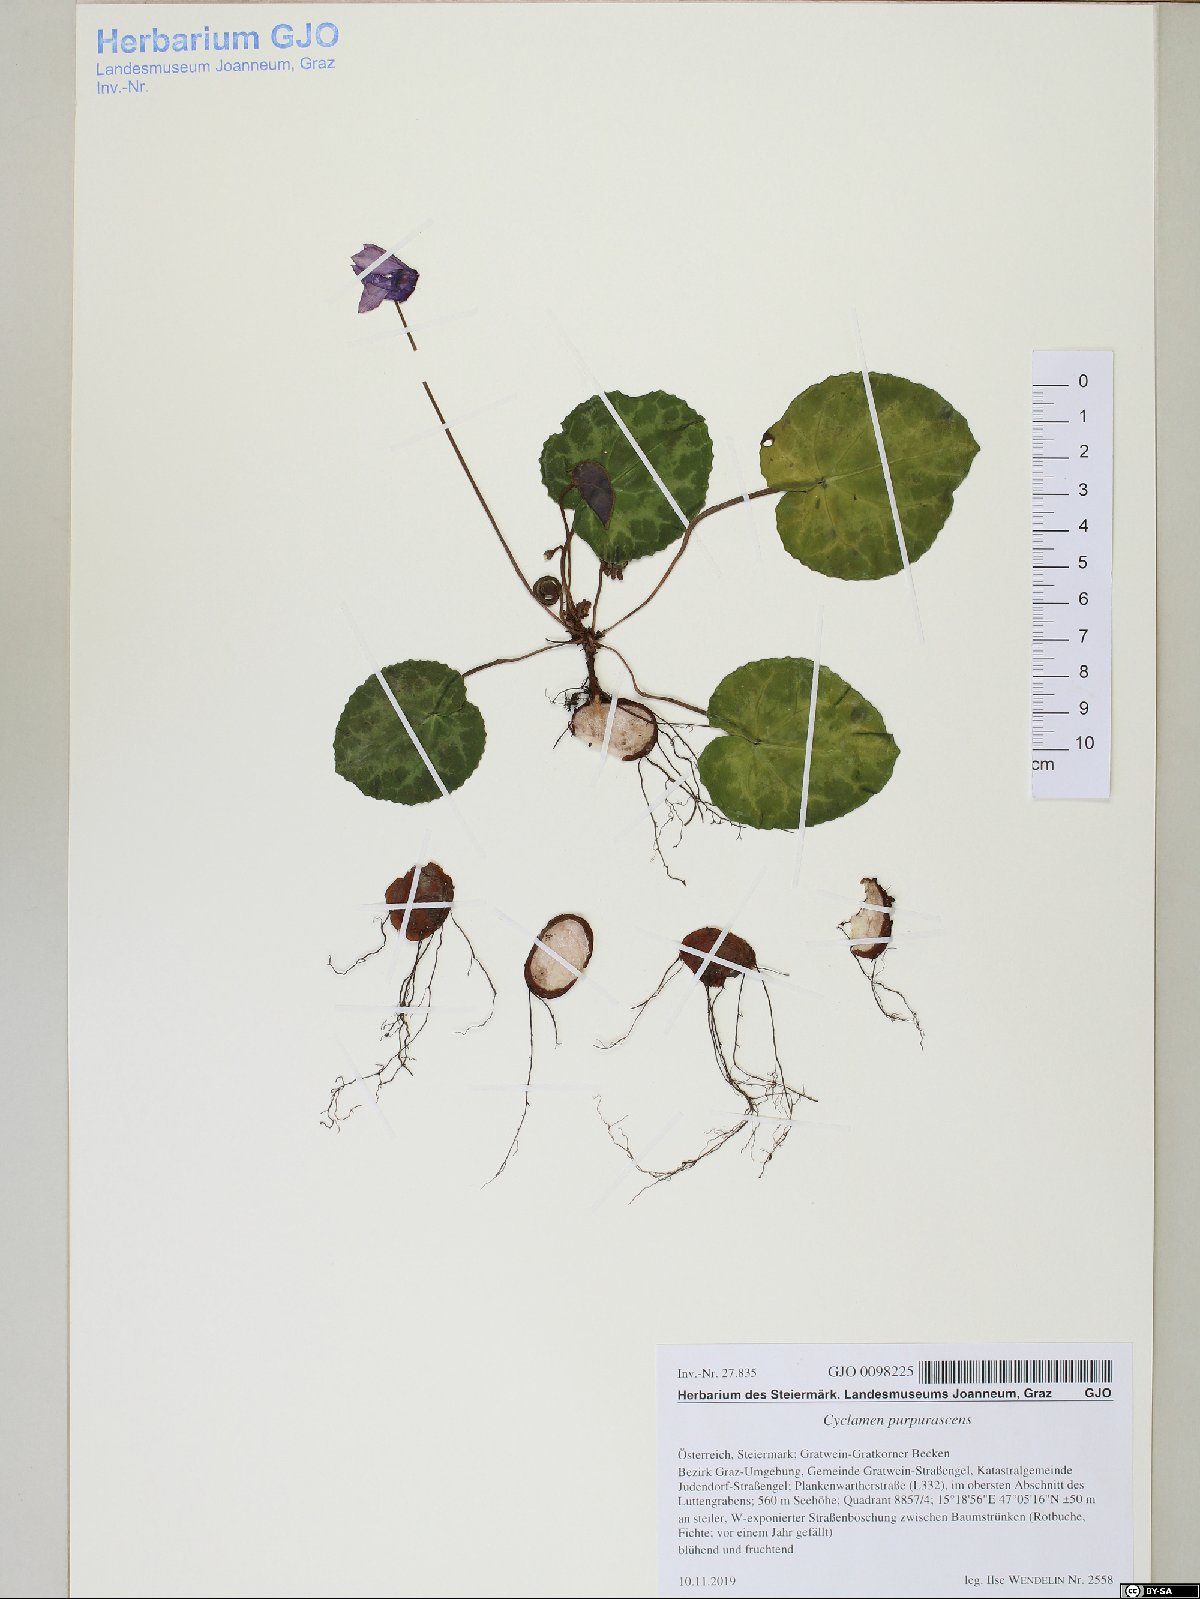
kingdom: Plantae
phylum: Tracheophyta
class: Magnoliopsida
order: Ericales
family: Primulaceae
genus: Cyclamen
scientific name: Cyclamen purpurascens
